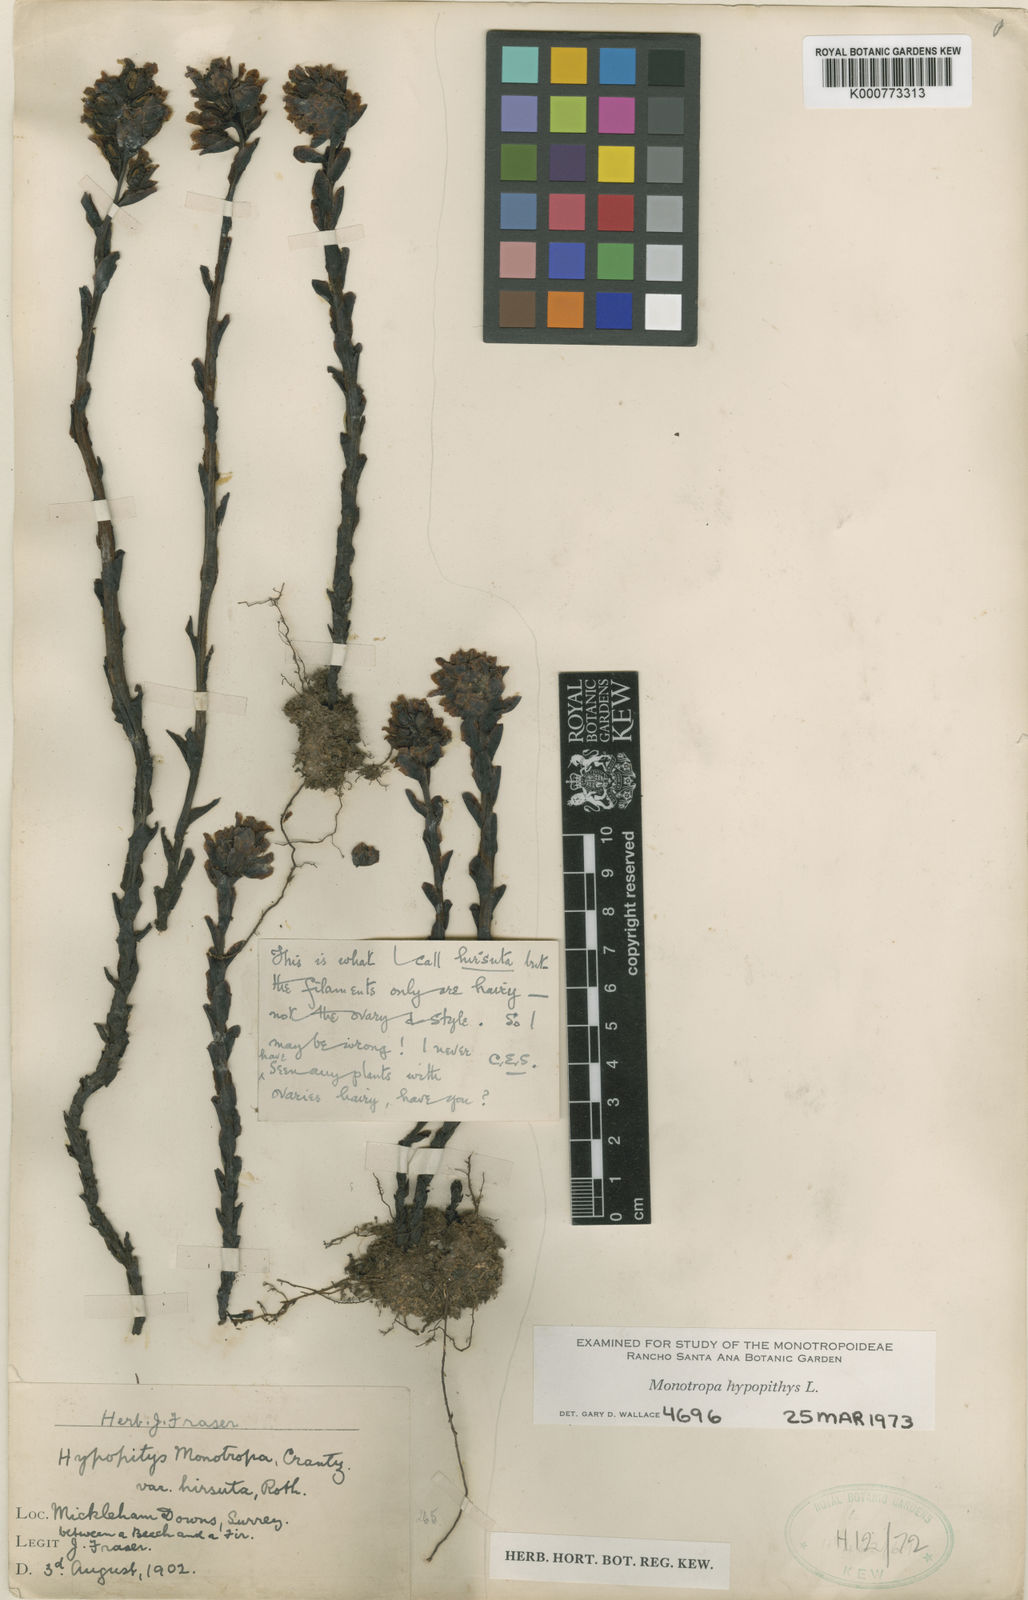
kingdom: Plantae
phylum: Tracheophyta
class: Magnoliopsida
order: Ericales
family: Ericaceae
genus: Monotropa
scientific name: Monotropa
